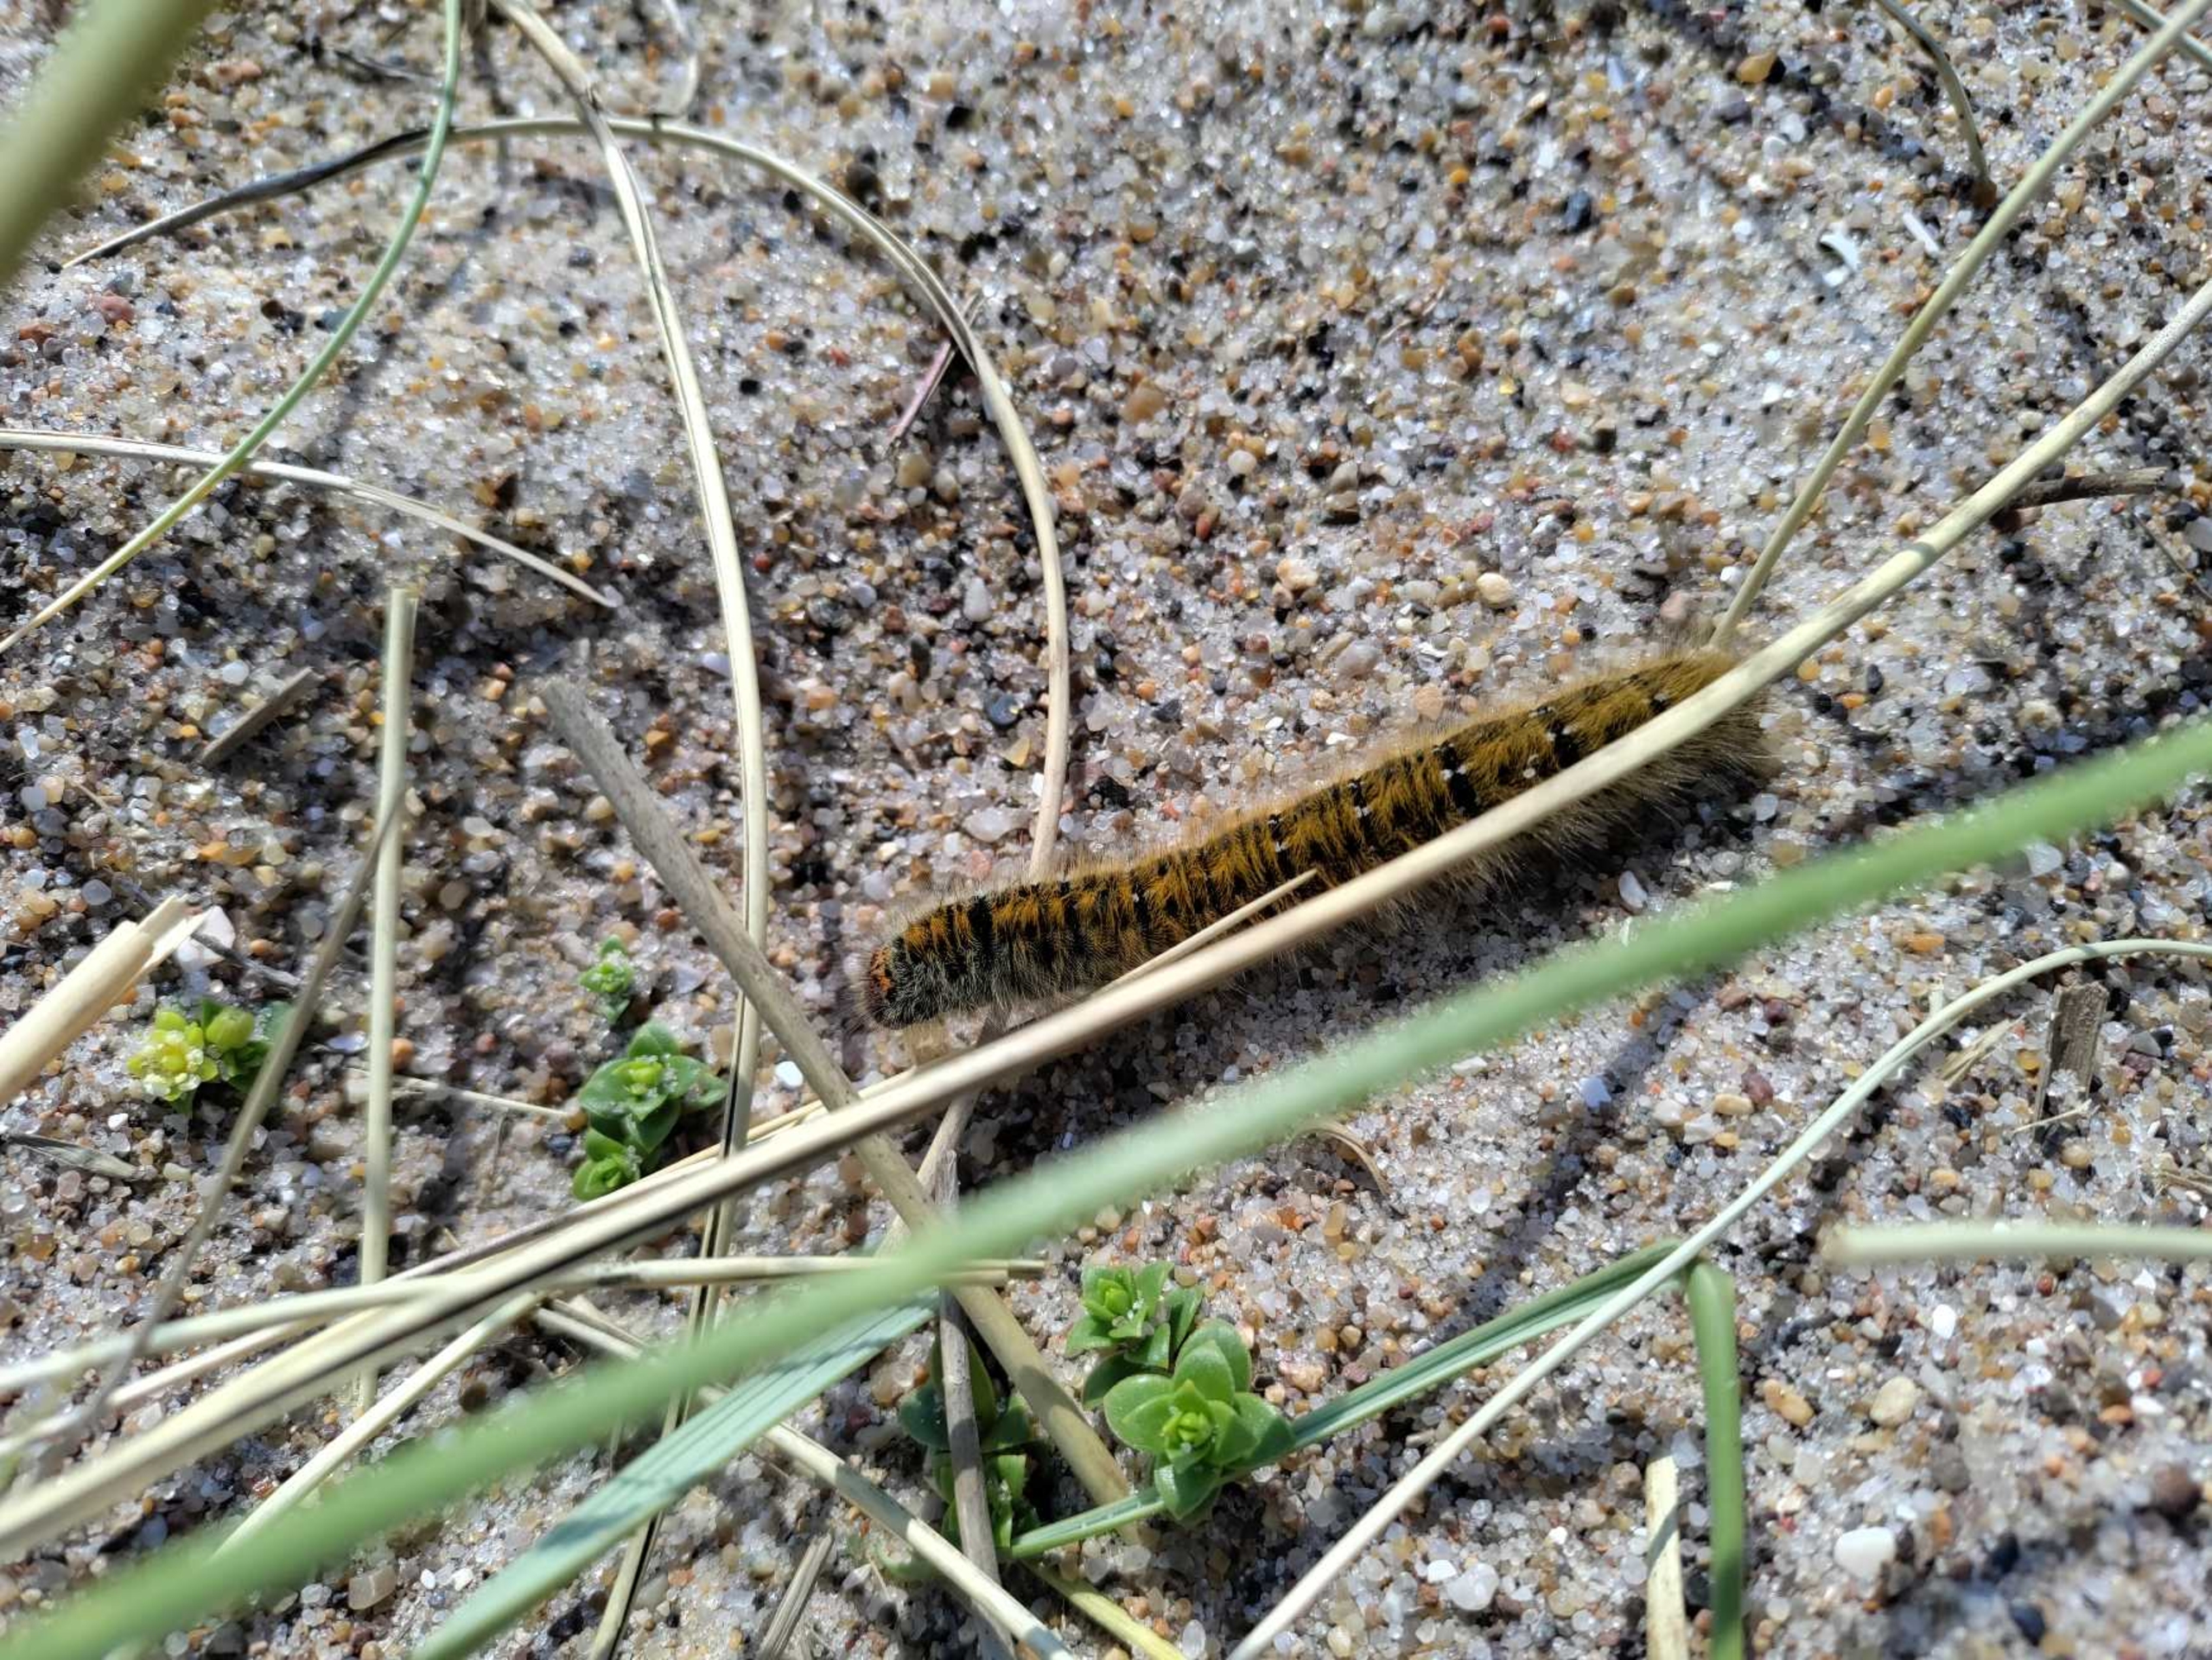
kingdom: Animalia
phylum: Arthropoda
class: Insecta
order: Lepidoptera
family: Lasiocampidae
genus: Lasiocampa
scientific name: Lasiocampa quercus
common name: Egespinder
